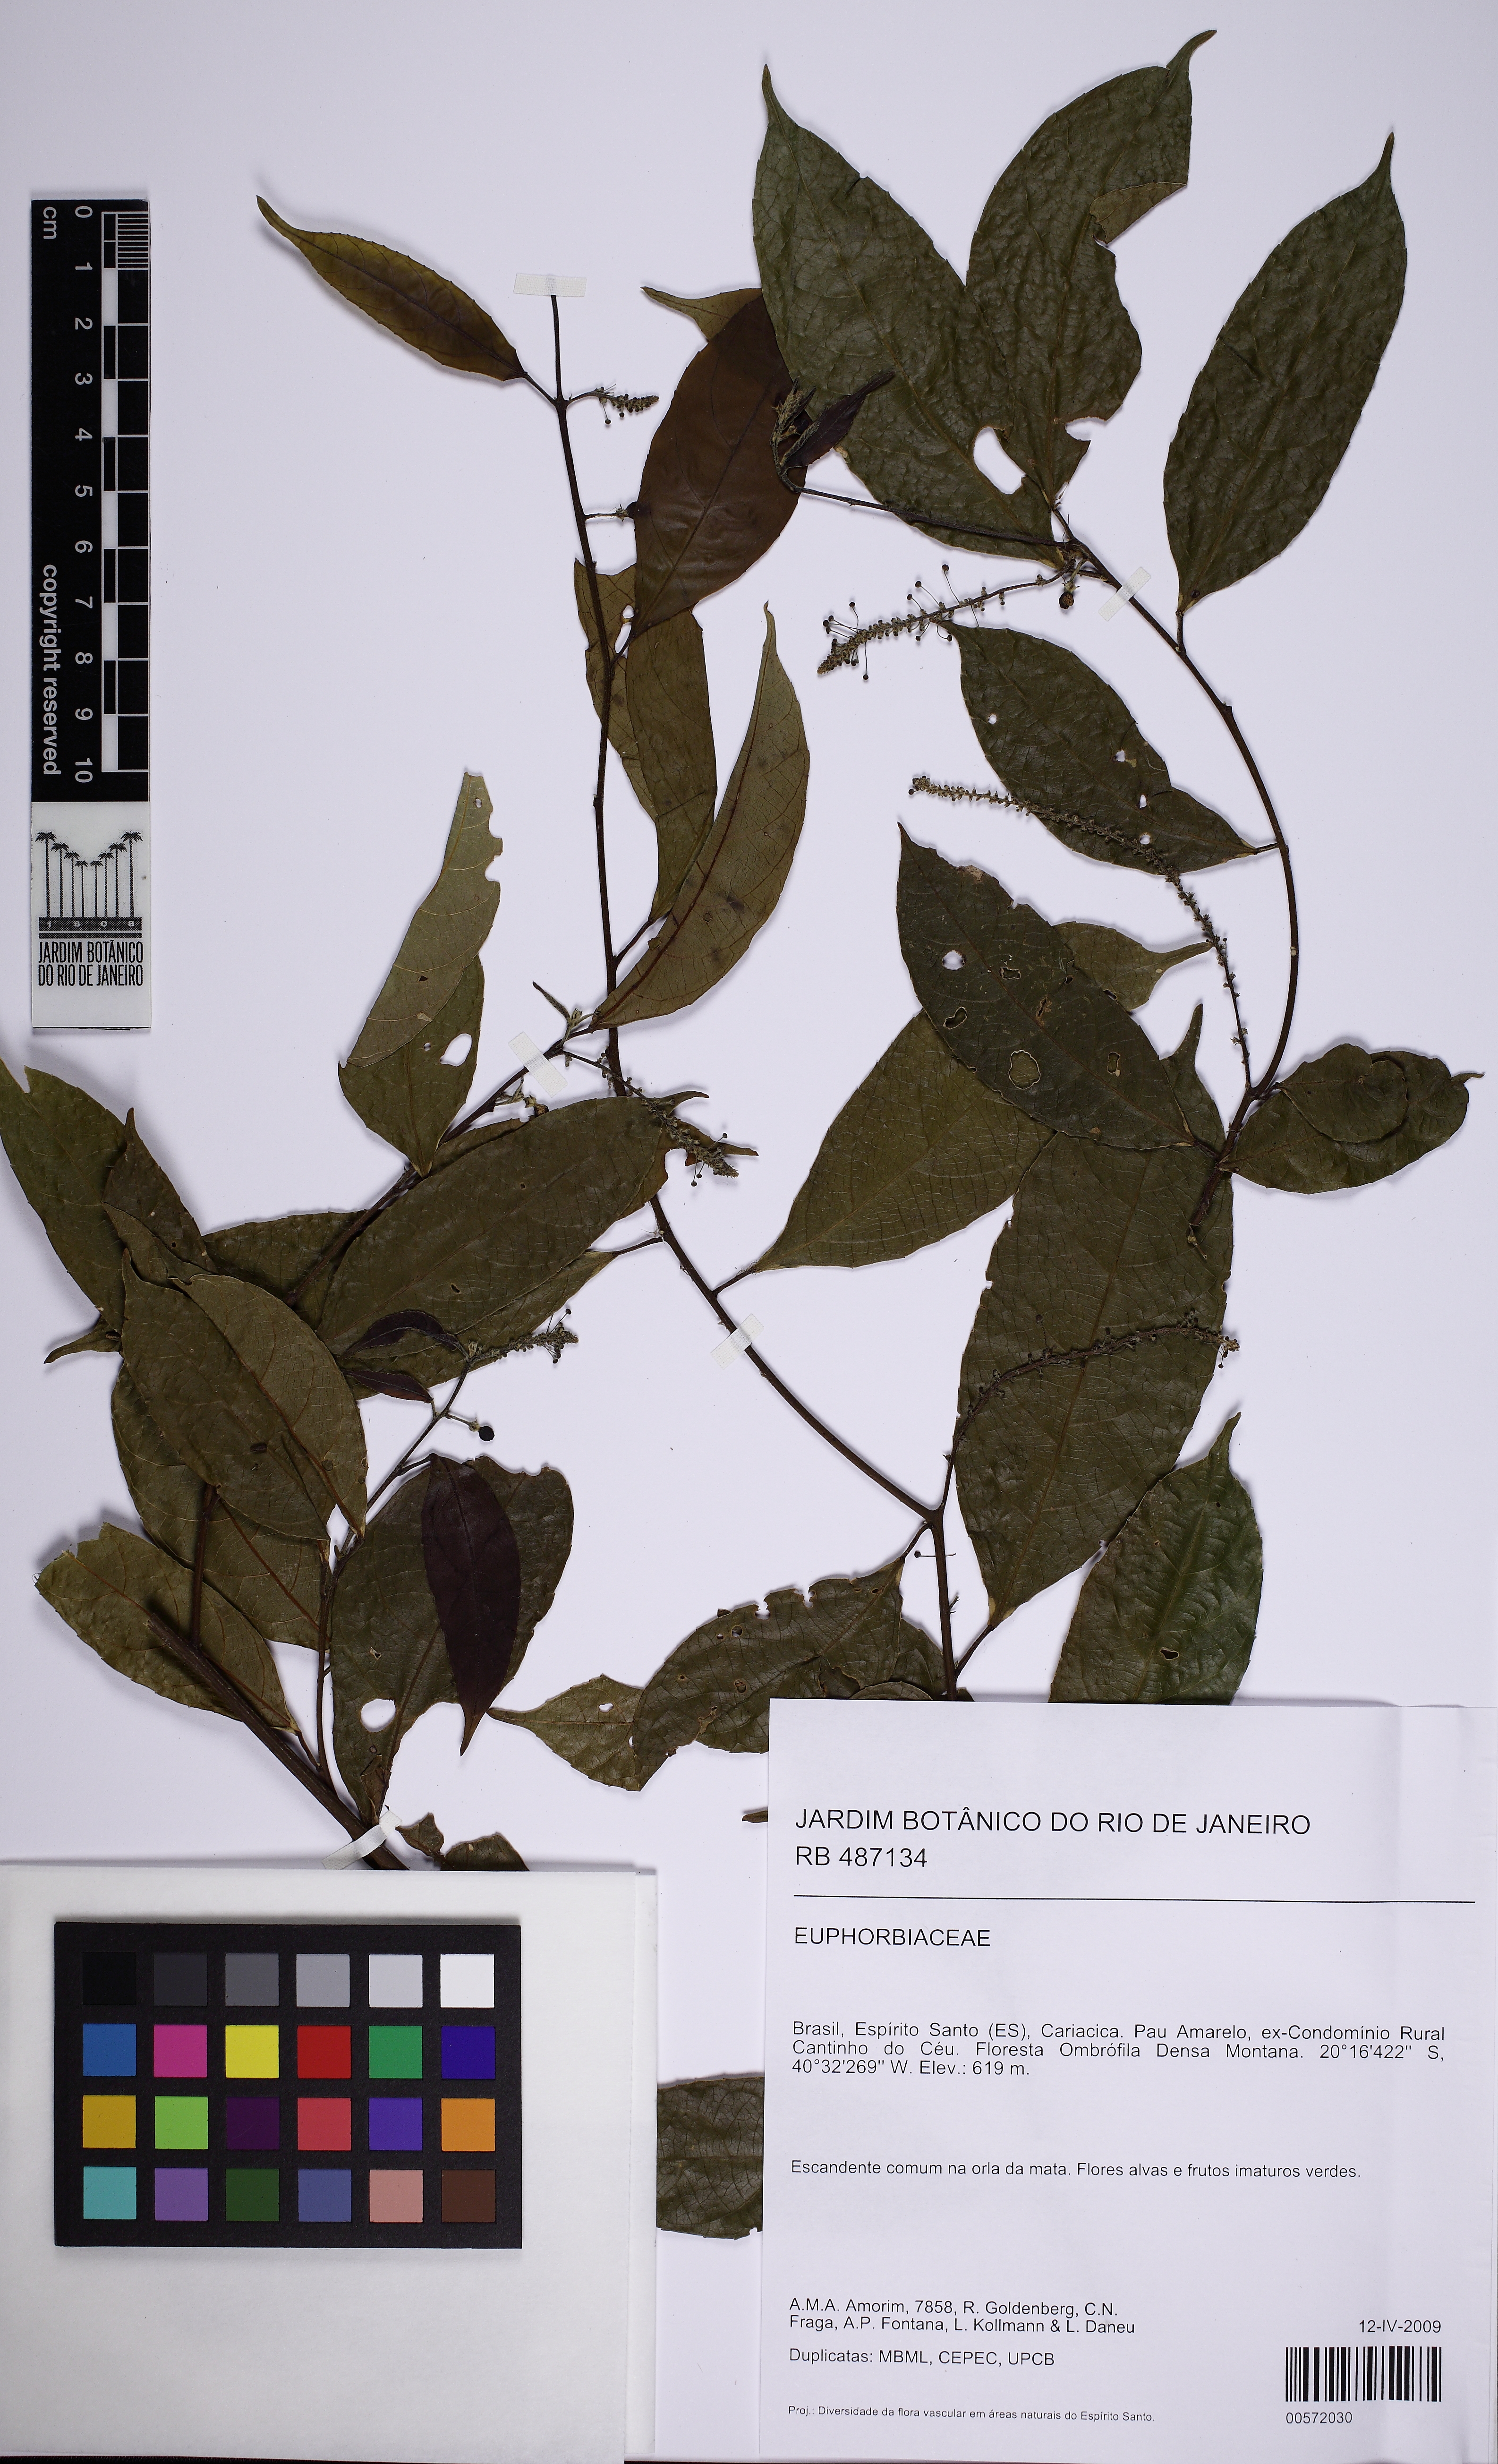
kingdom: Plantae
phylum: Tracheophyta
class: Magnoliopsida
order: Malpighiales
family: Euphorbiaceae
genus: Plukenetia
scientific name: Plukenetia
